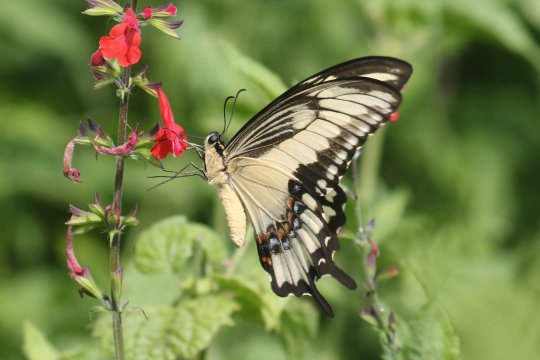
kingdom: Animalia
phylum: Arthropoda
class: Insecta
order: Lepidoptera
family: Papilionidae
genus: Papilio
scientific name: Papilio astyalus
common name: Broad-banded Swallowtail
